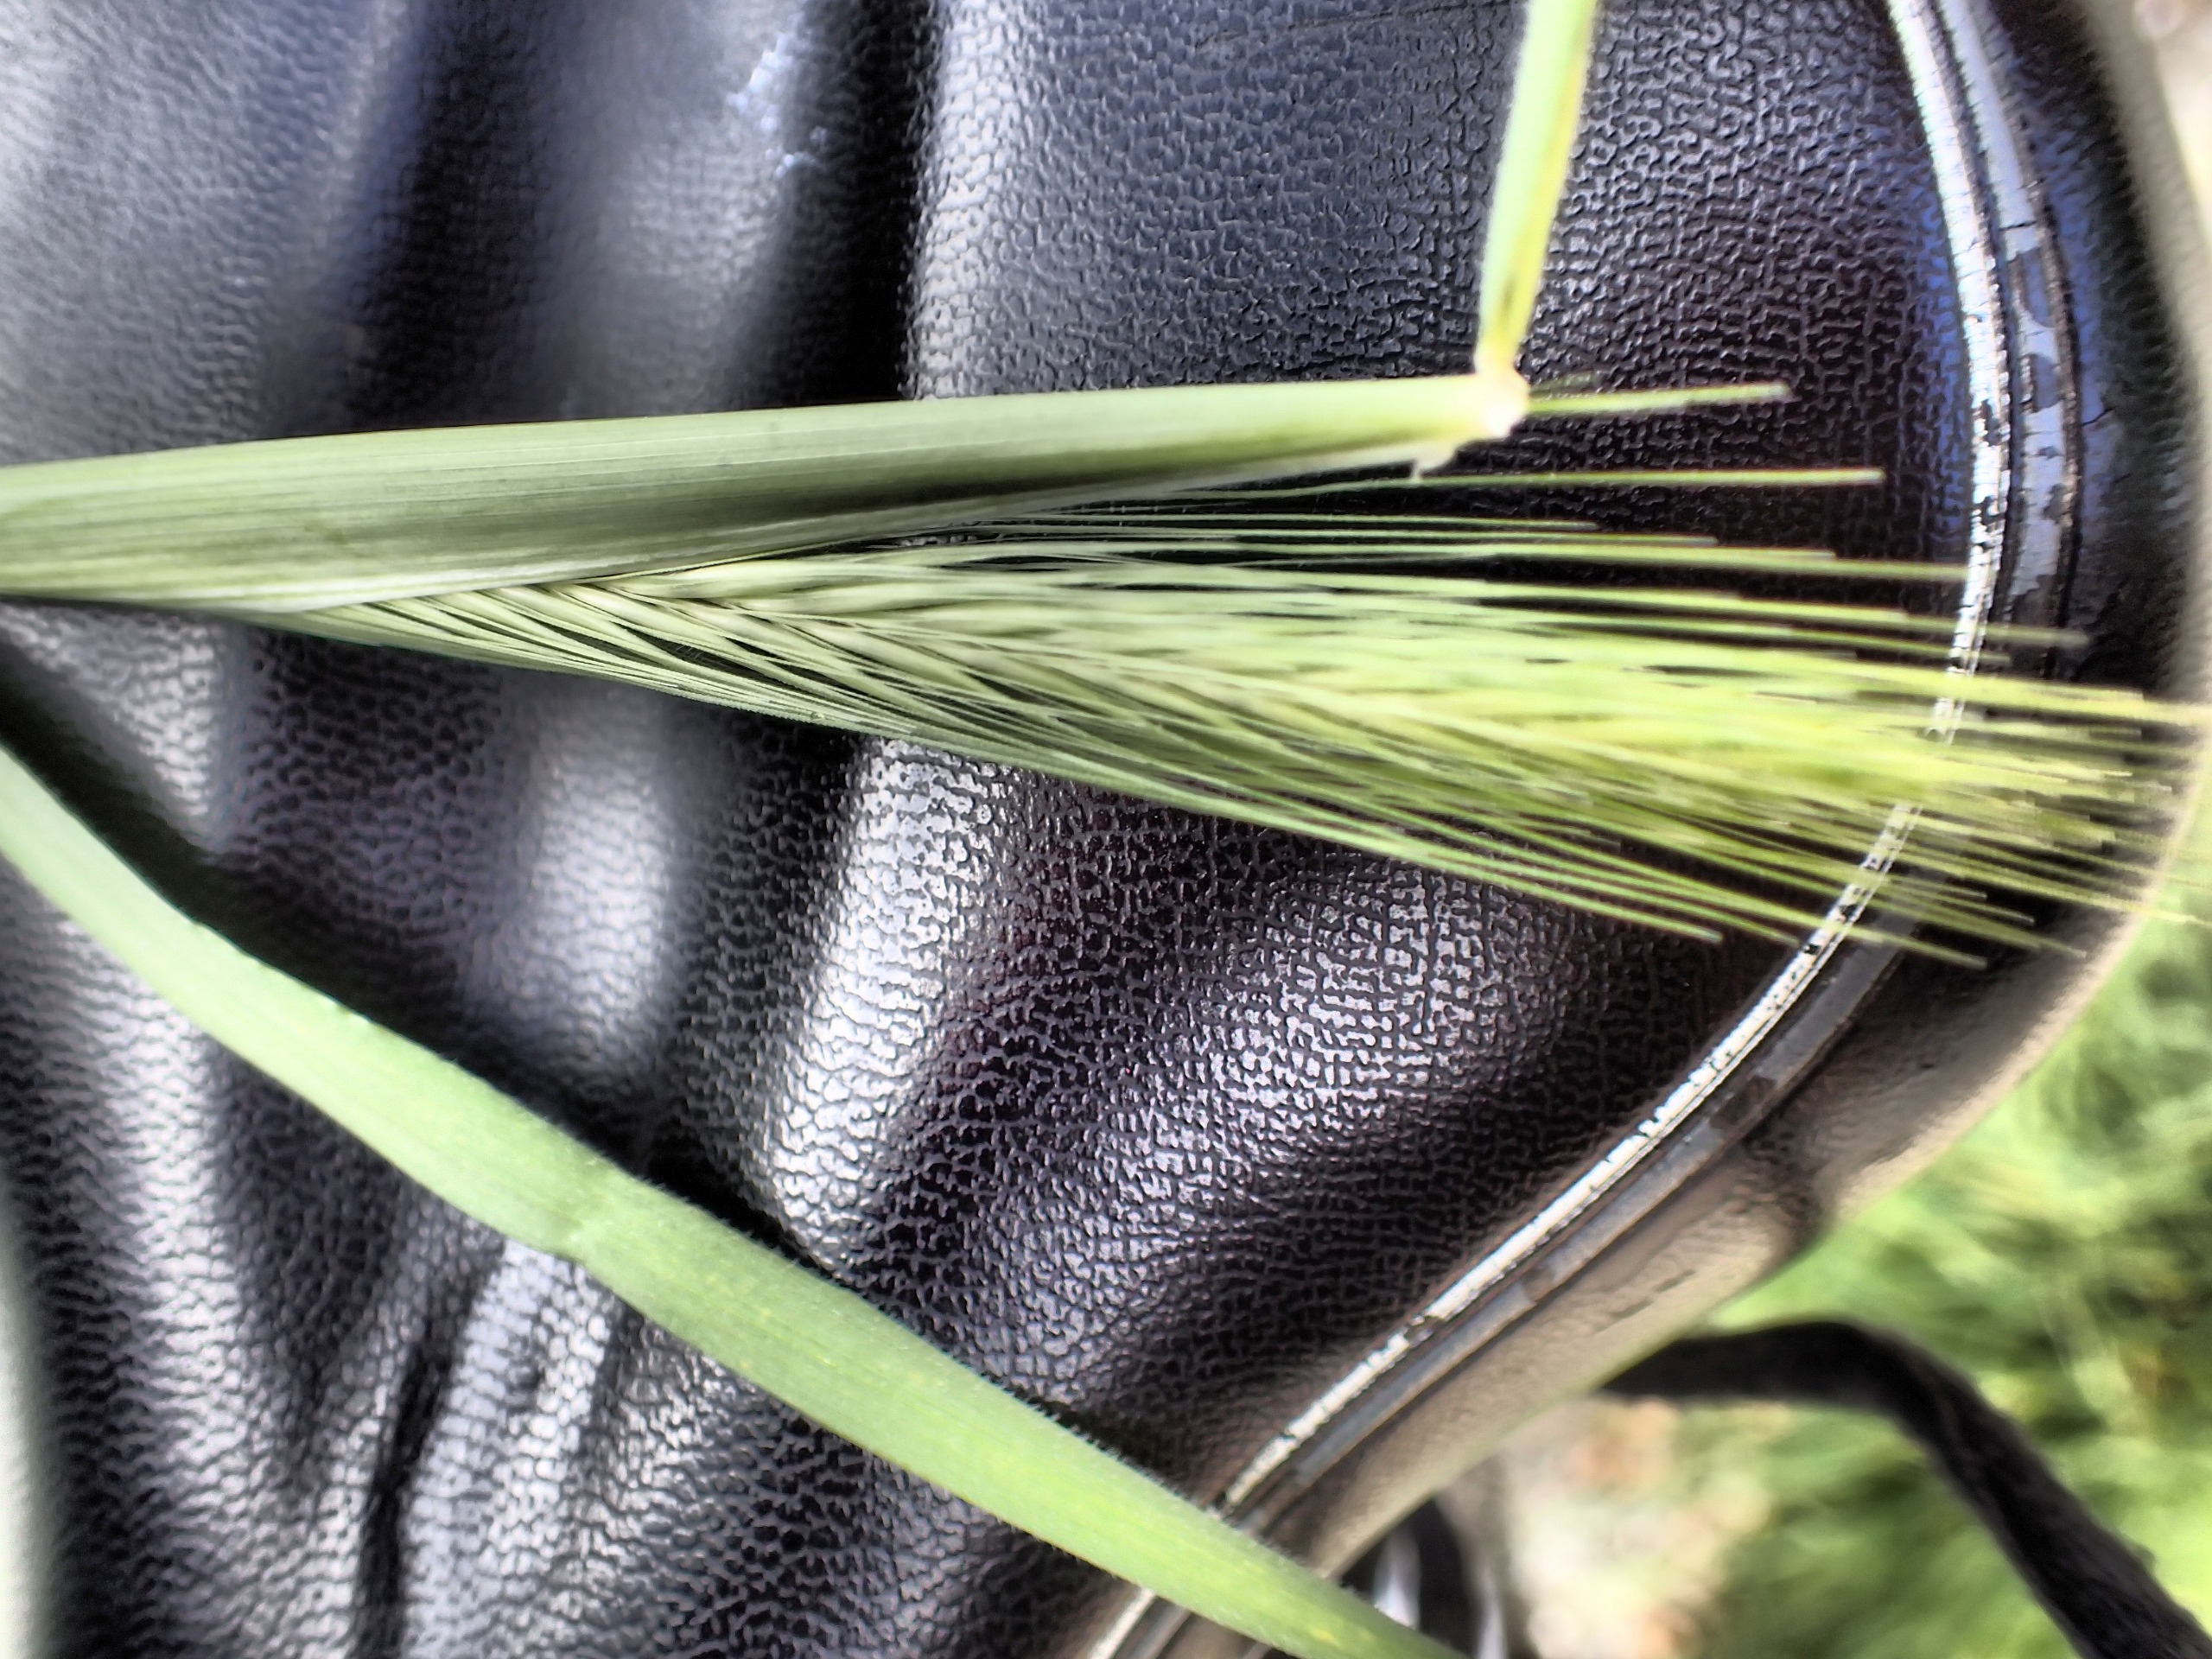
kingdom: Plantae
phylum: Tracheophyta
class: Liliopsida
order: Poales
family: Poaceae
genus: Hordeum
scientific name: Hordeum murinum
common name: Gold byg
